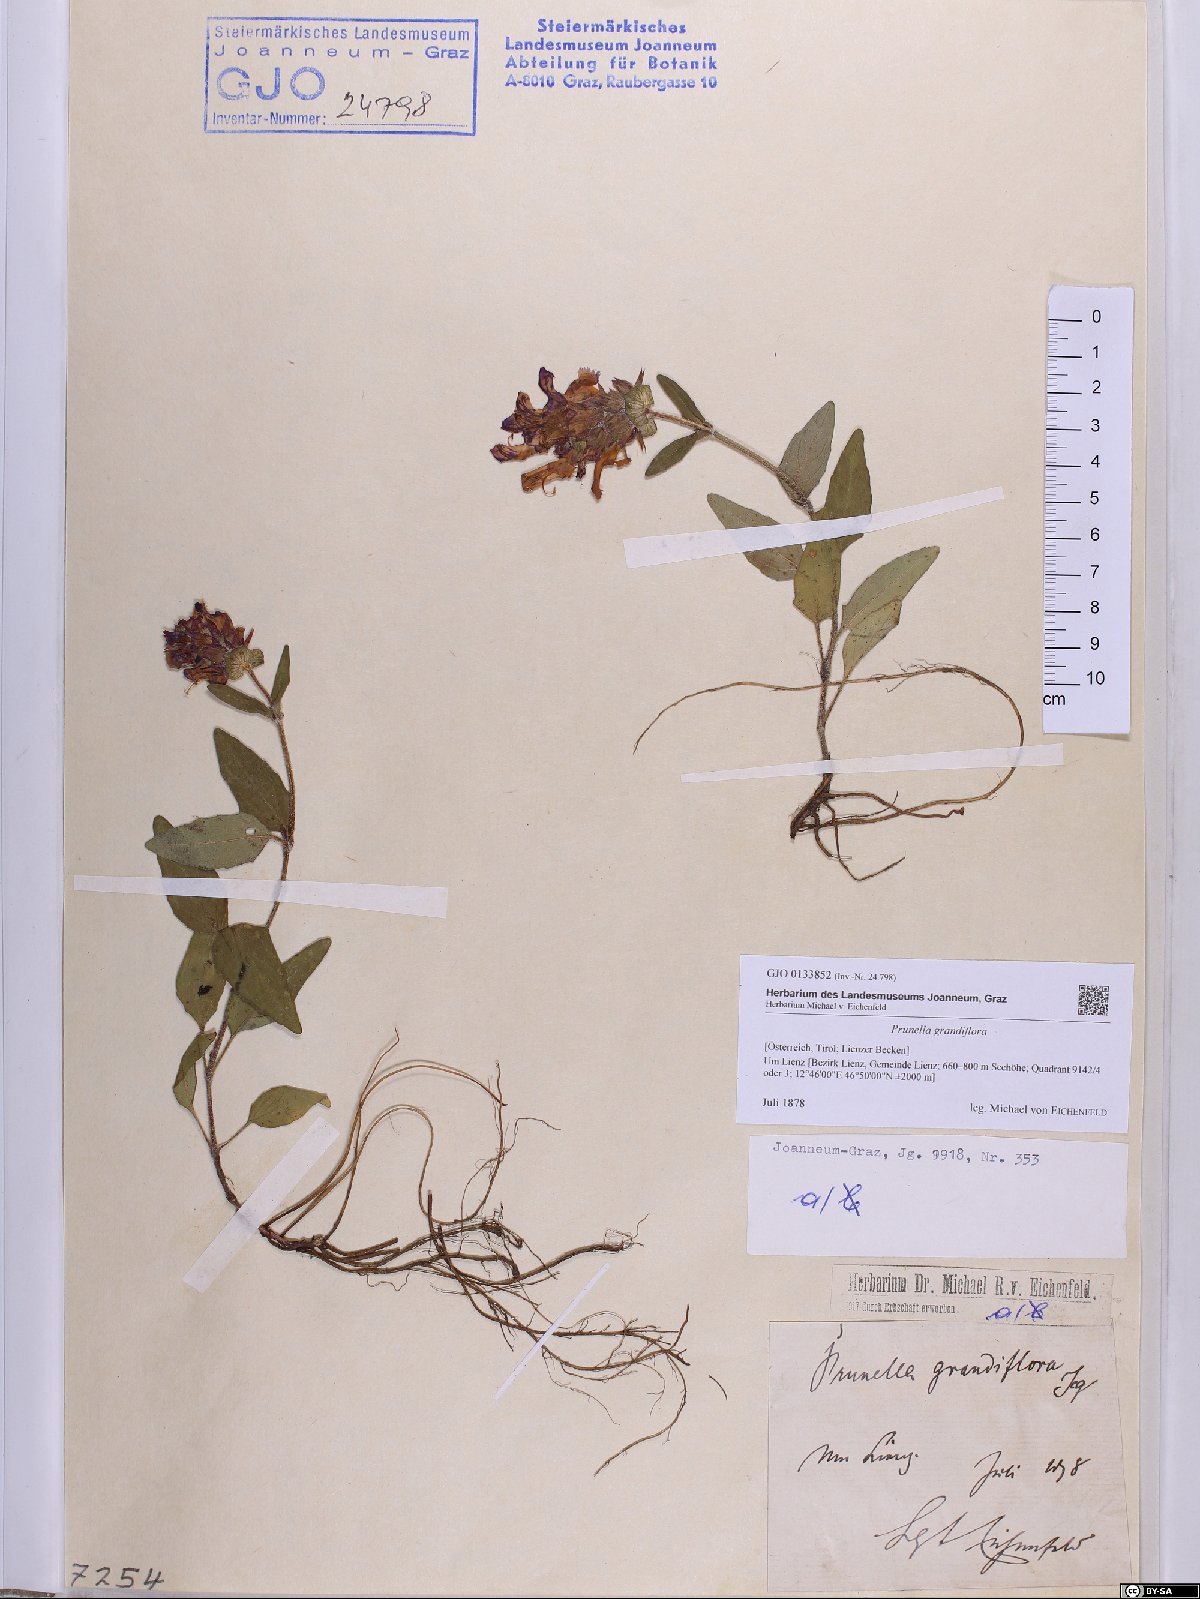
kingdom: Plantae
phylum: Tracheophyta
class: Magnoliopsida
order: Lamiales
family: Lamiaceae
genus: Prunella
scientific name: Prunella grandiflora
